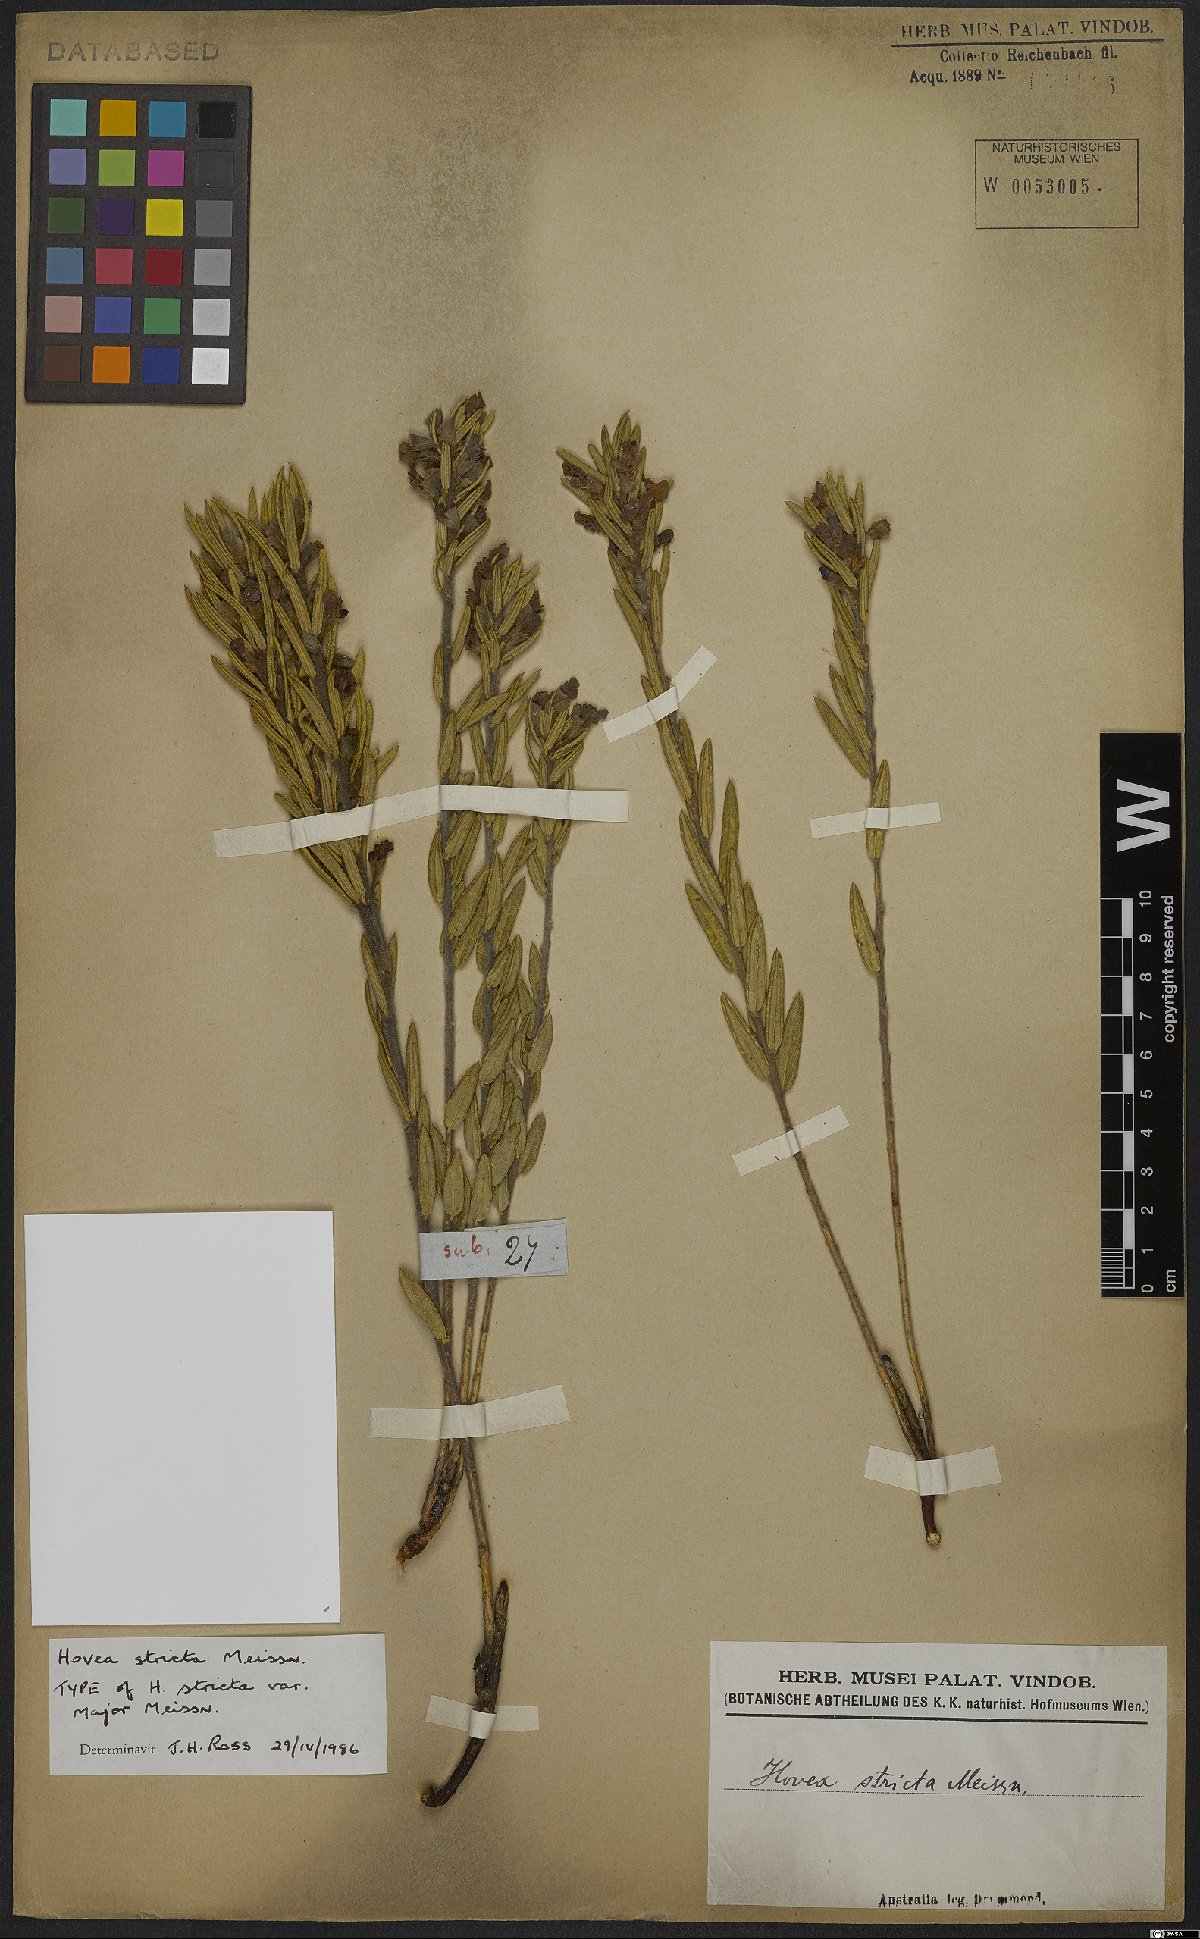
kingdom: Plantae
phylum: Tracheophyta
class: Magnoliopsida
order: Fabales
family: Fabaceae
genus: Hovea
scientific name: Hovea stricta
